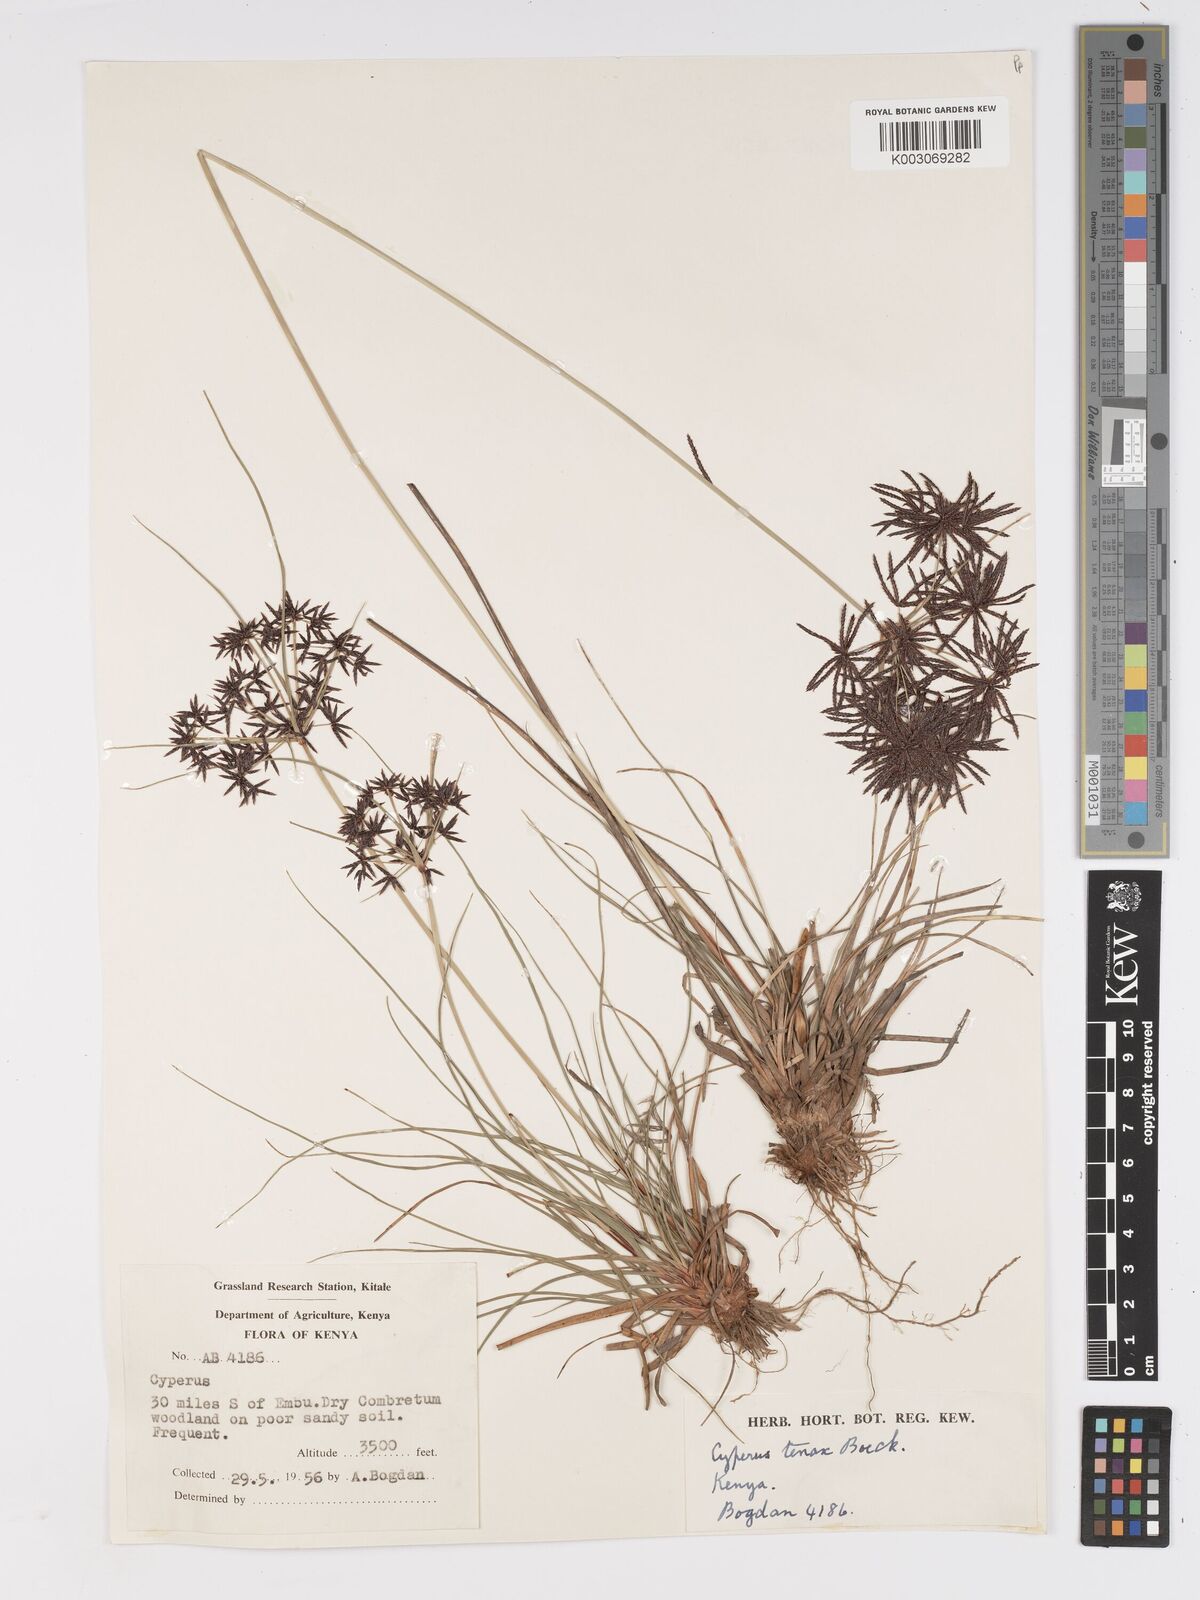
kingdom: Plantae
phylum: Tracheophyta
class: Liliopsida
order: Poales
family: Cyperaceae
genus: Cyperus
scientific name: Cyperus tenax
